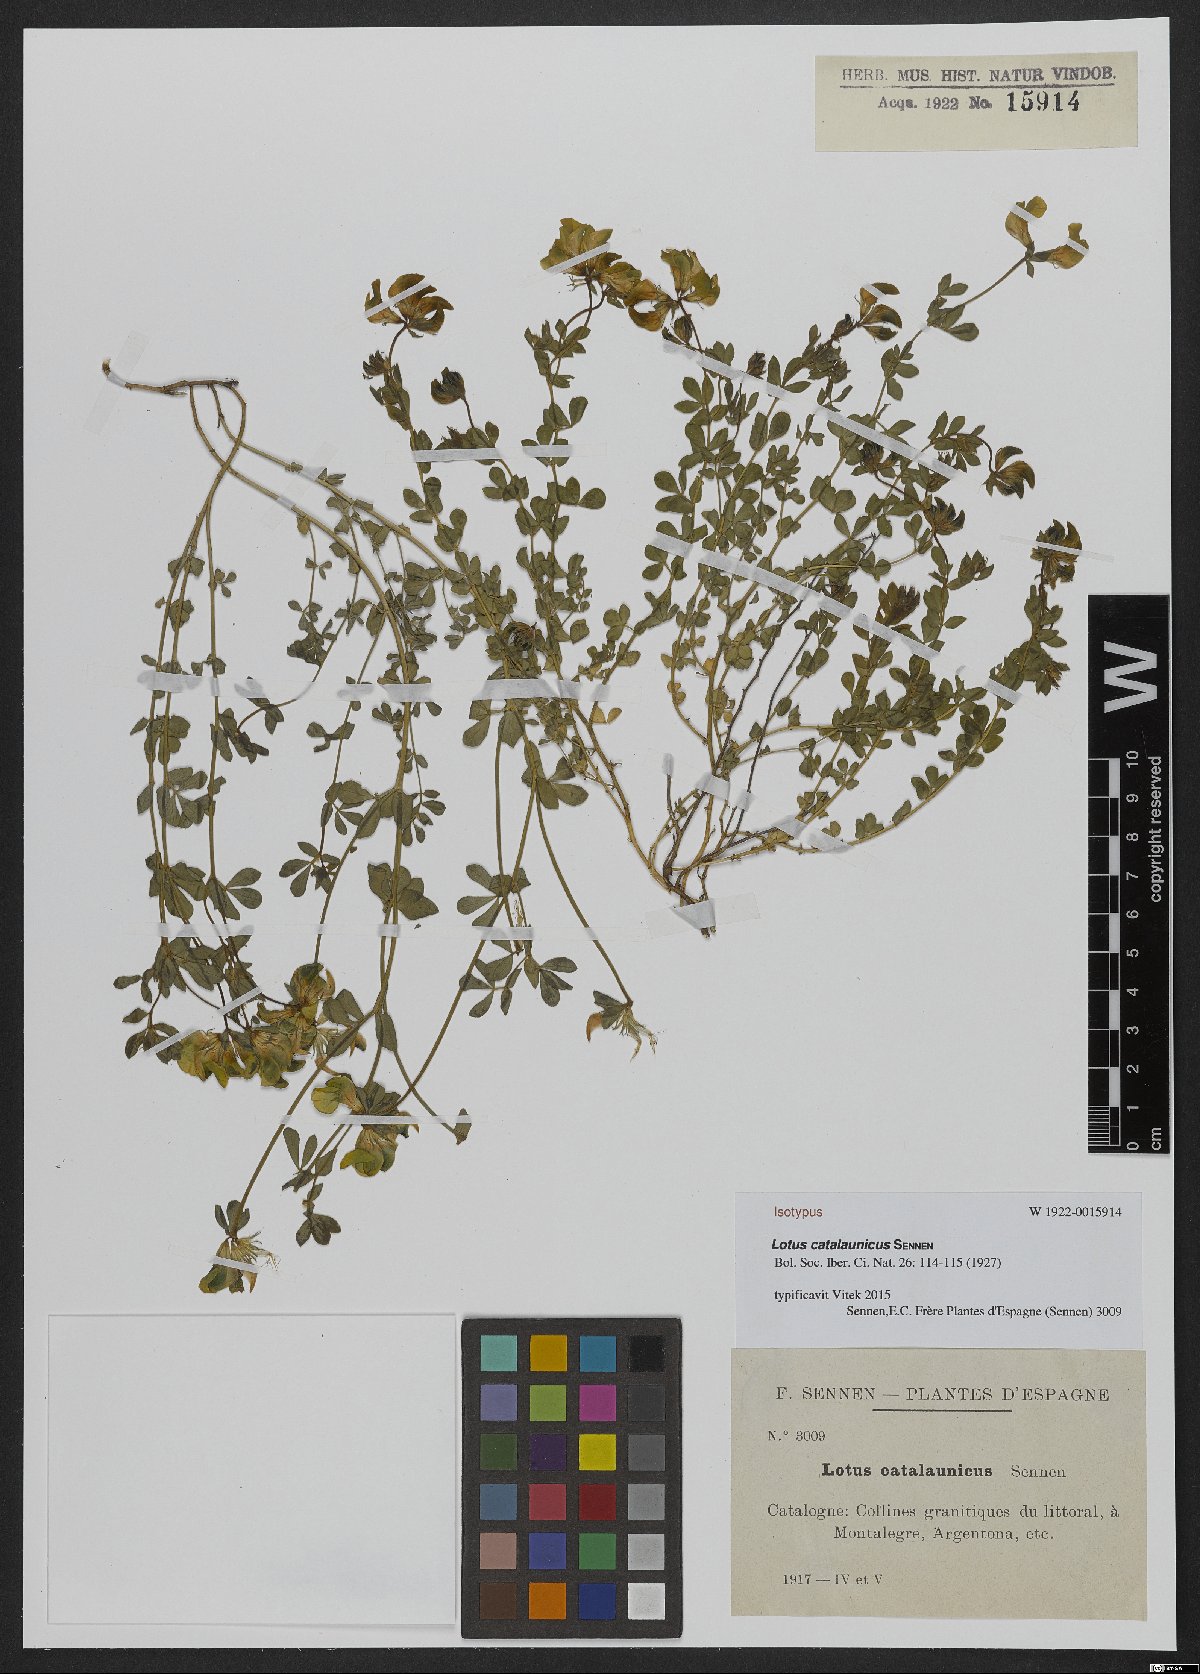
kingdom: Plantae
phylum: Tracheophyta
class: Magnoliopsida
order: Fabales
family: Fabaceae
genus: Lotus
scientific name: Lotus corniculatus
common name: Common bird's-foot-trefoil
